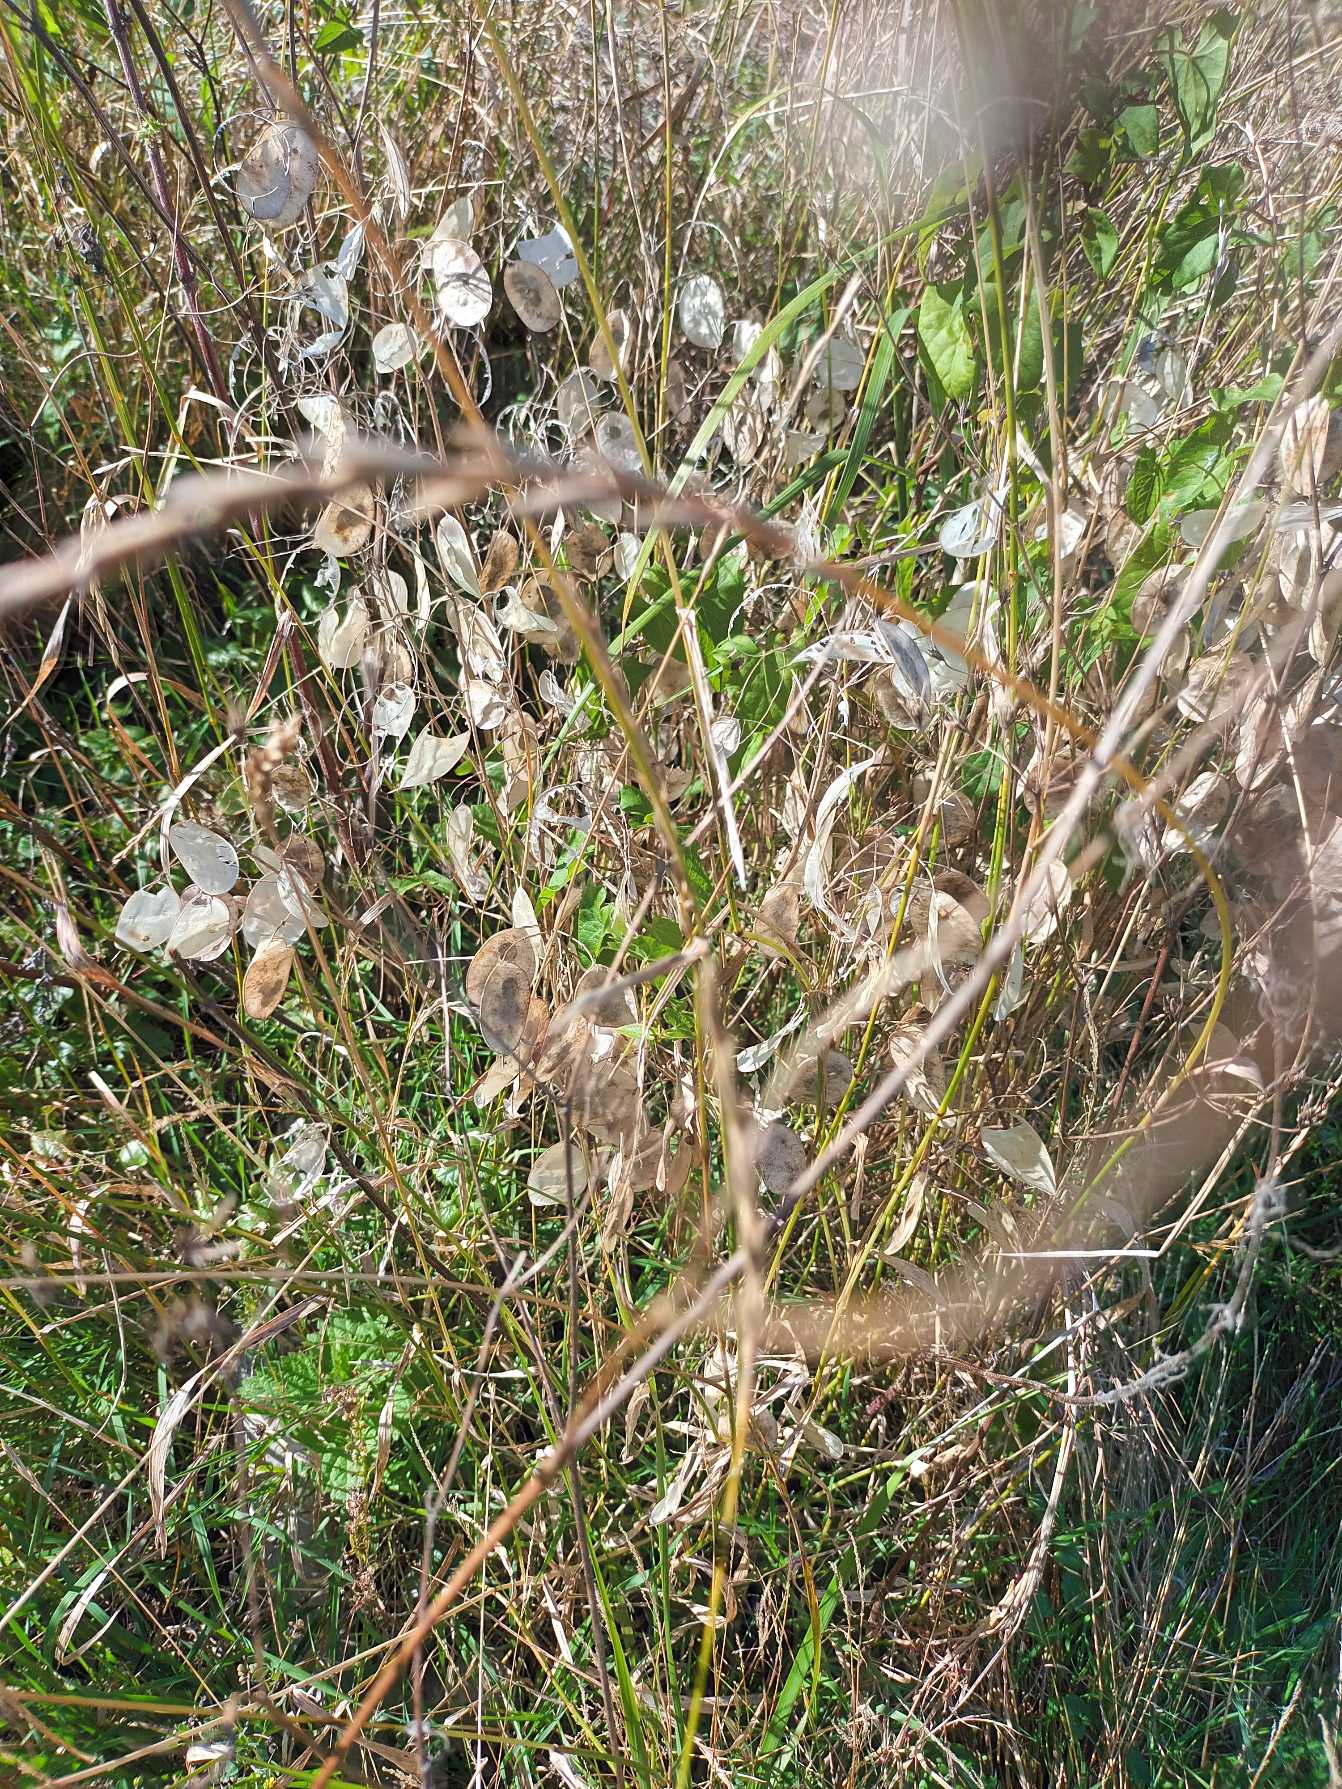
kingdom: Plantae
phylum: Tracheophyta
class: Magnoliopsida
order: Caryophyllales
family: Caryophyllaceae
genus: Spergula
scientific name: Spergula arvensis
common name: Almindelig spergel
